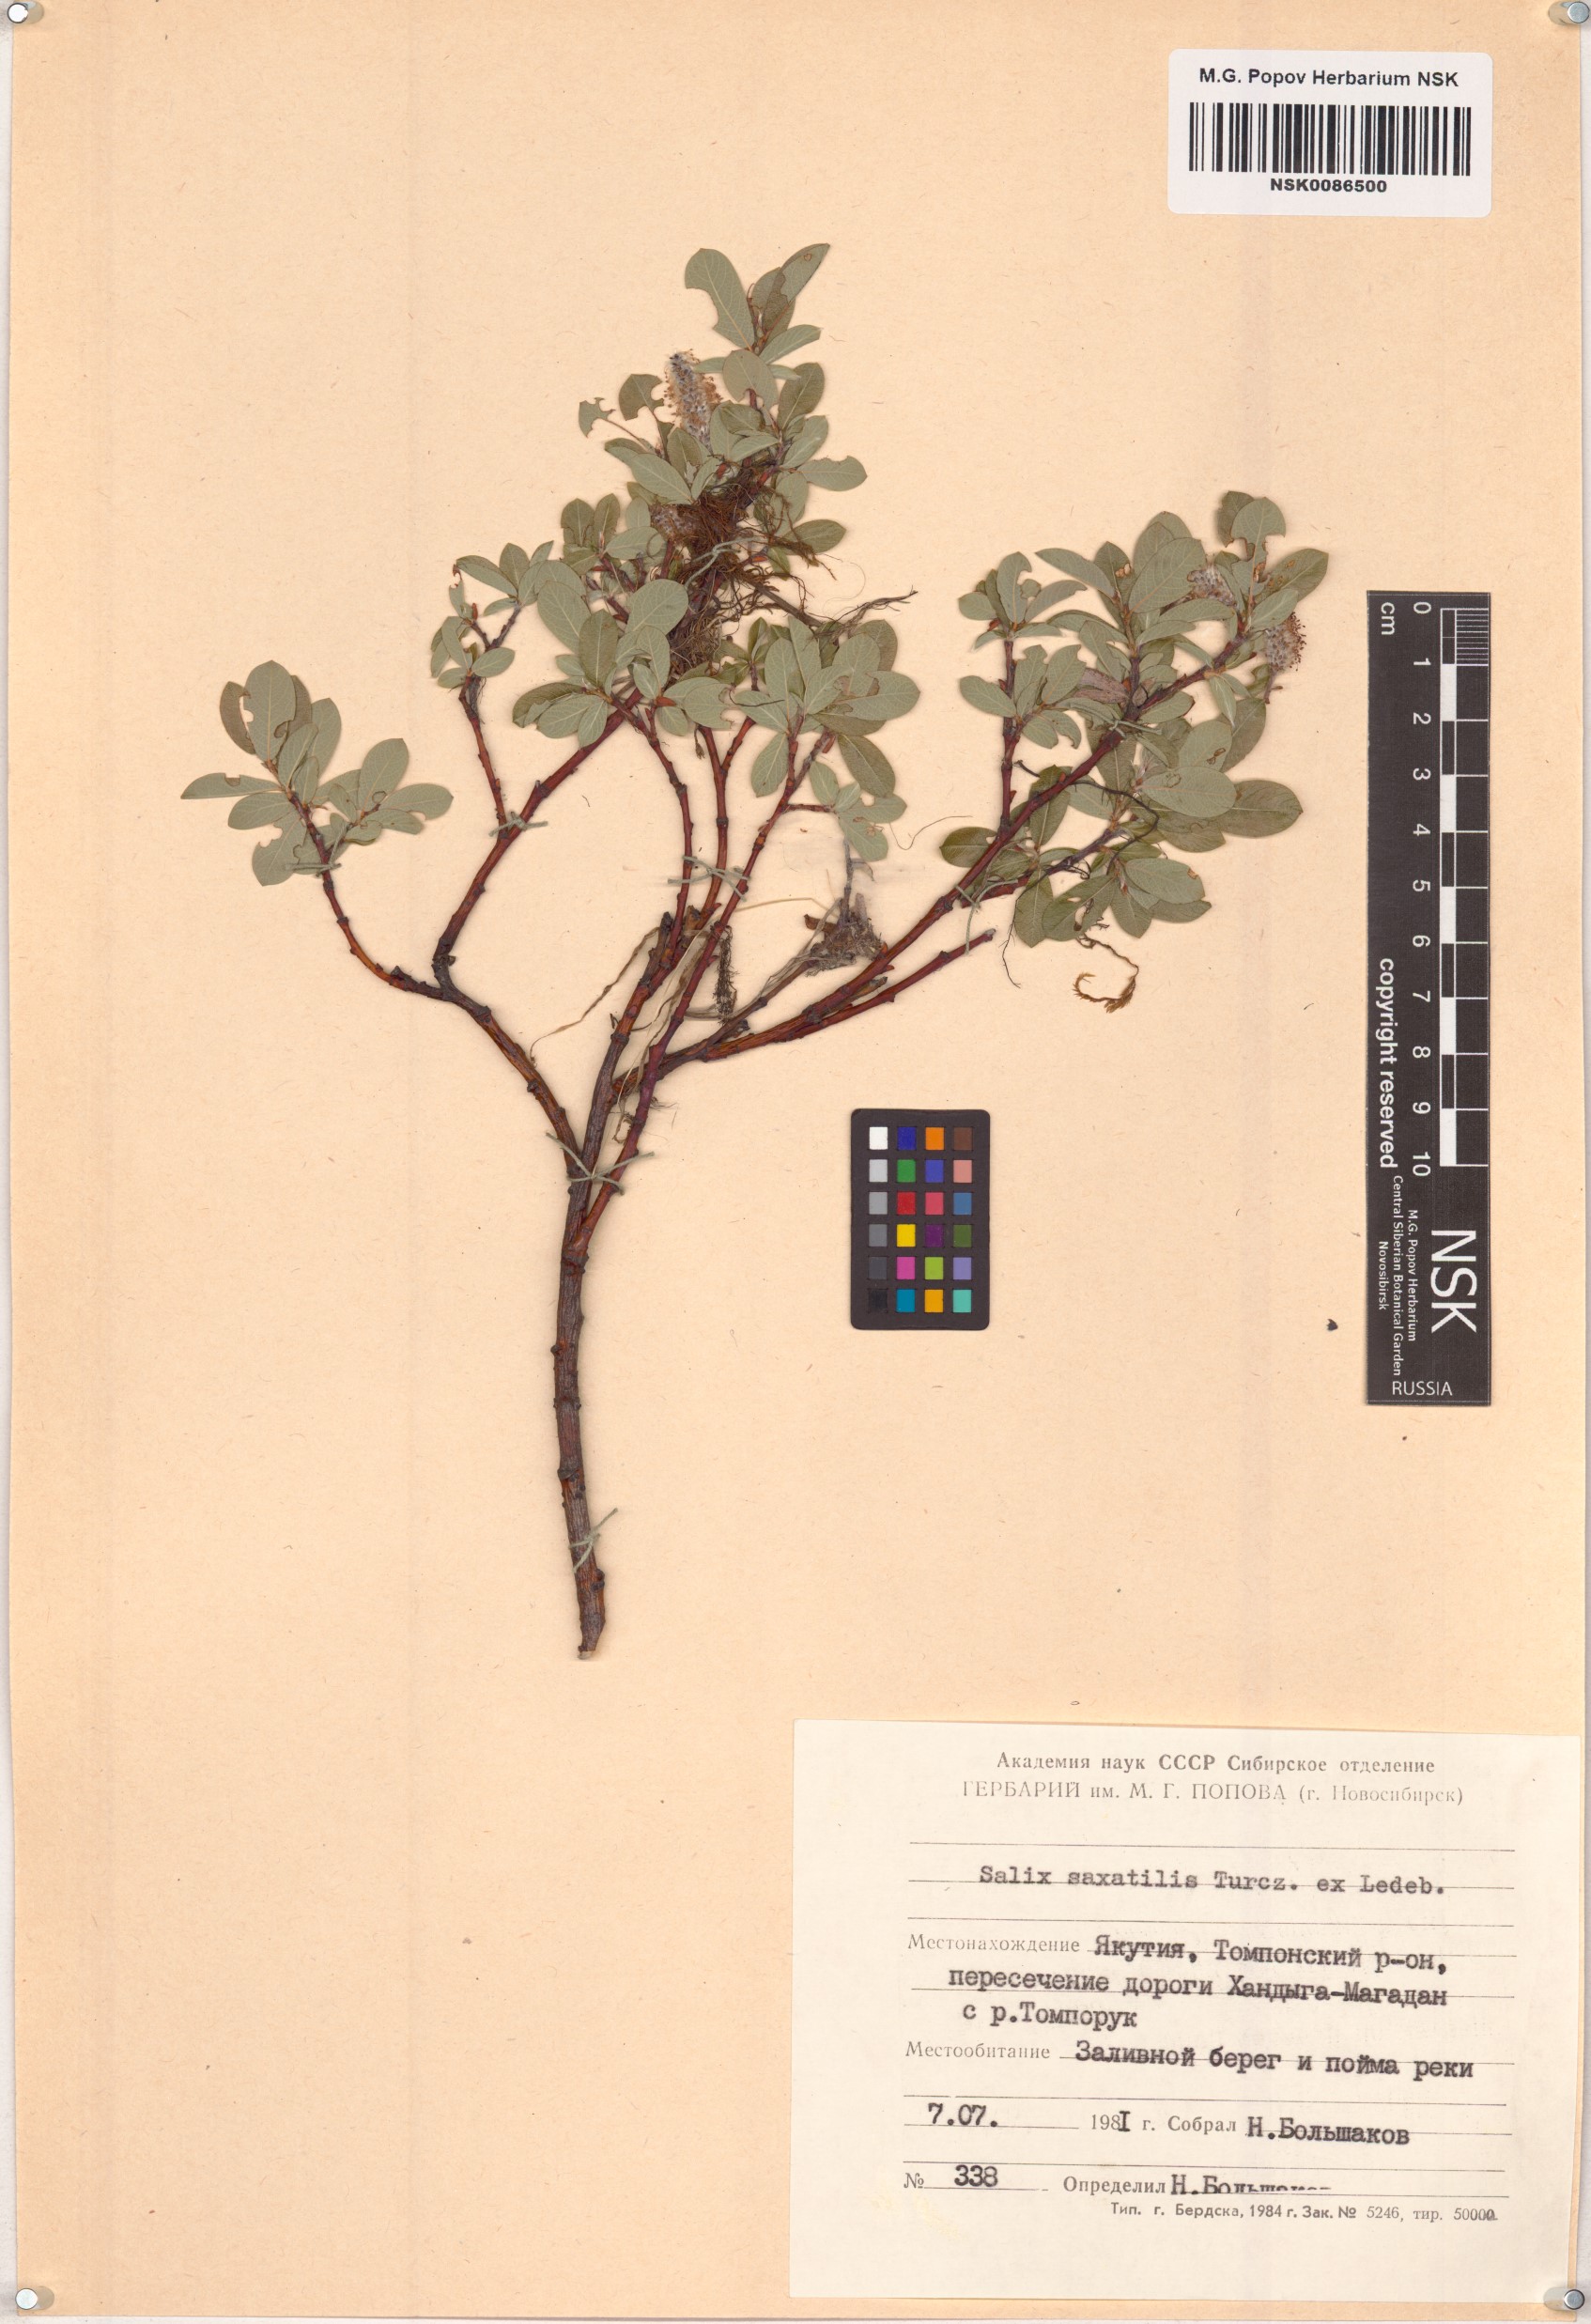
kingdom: Plantae
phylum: Tracheophyta
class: Magnoliopsida
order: Malpighiales
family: Salicaceae
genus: Salix
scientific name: Salix saxatilis
